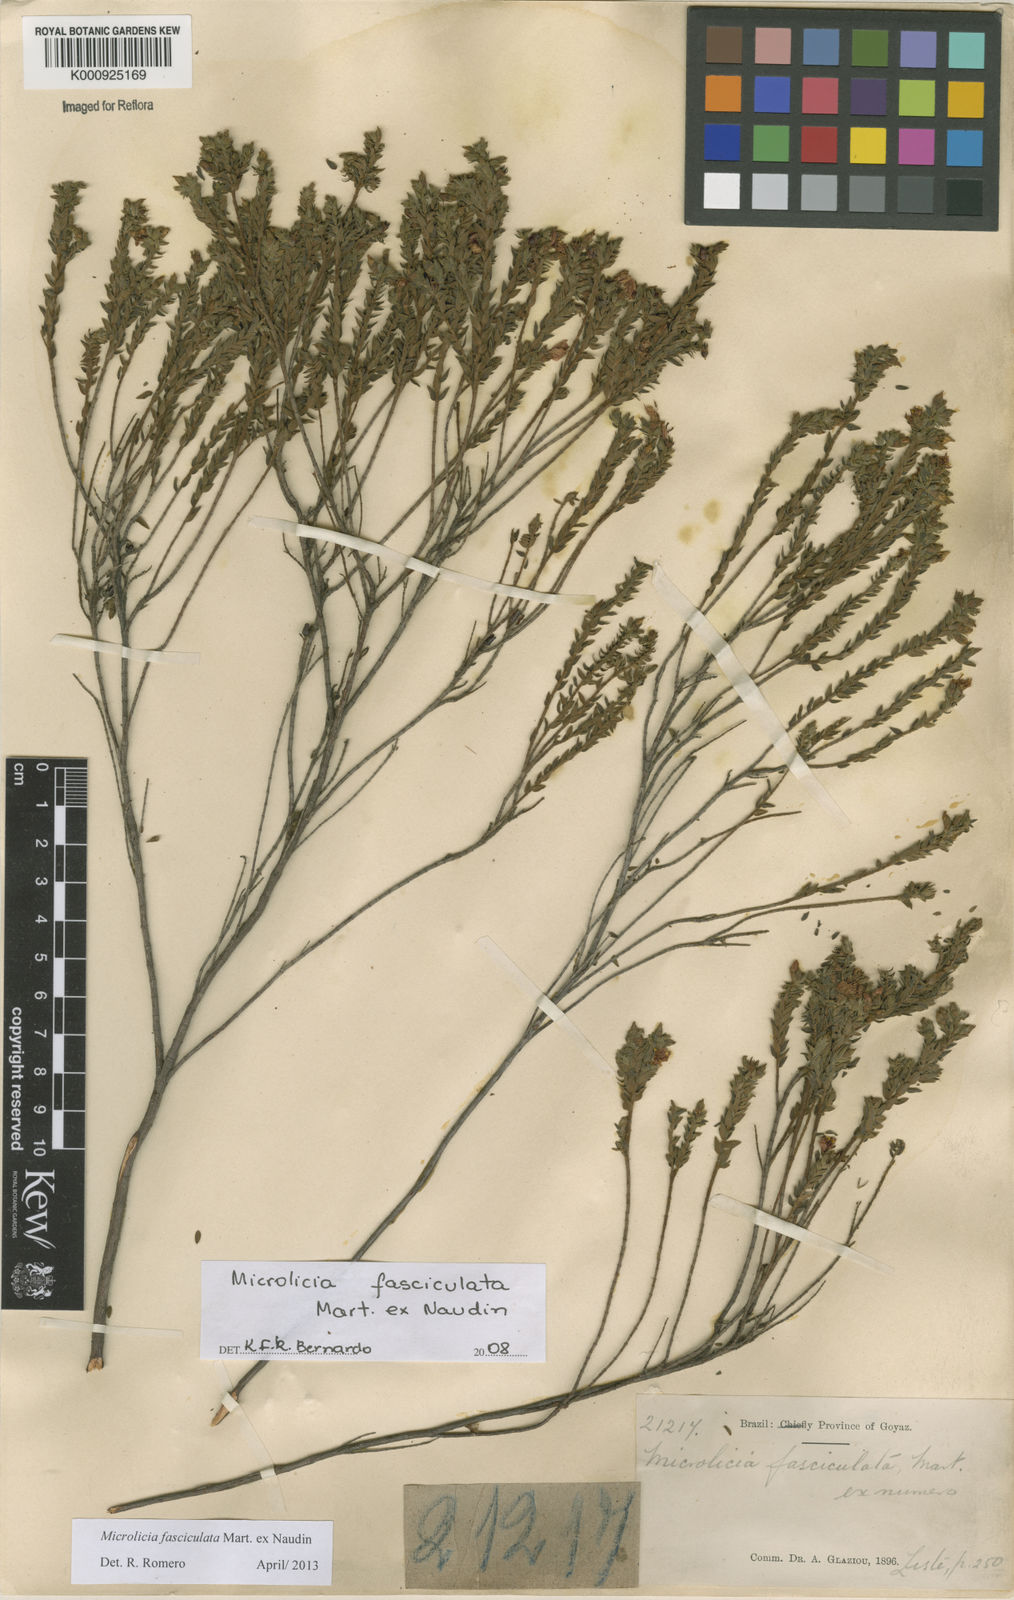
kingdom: Plantae
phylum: Tracheophyta
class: Magnoliopsida
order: Myrtales
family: Melastomataceae
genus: Microlicia
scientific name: Microlicia fasciculata
